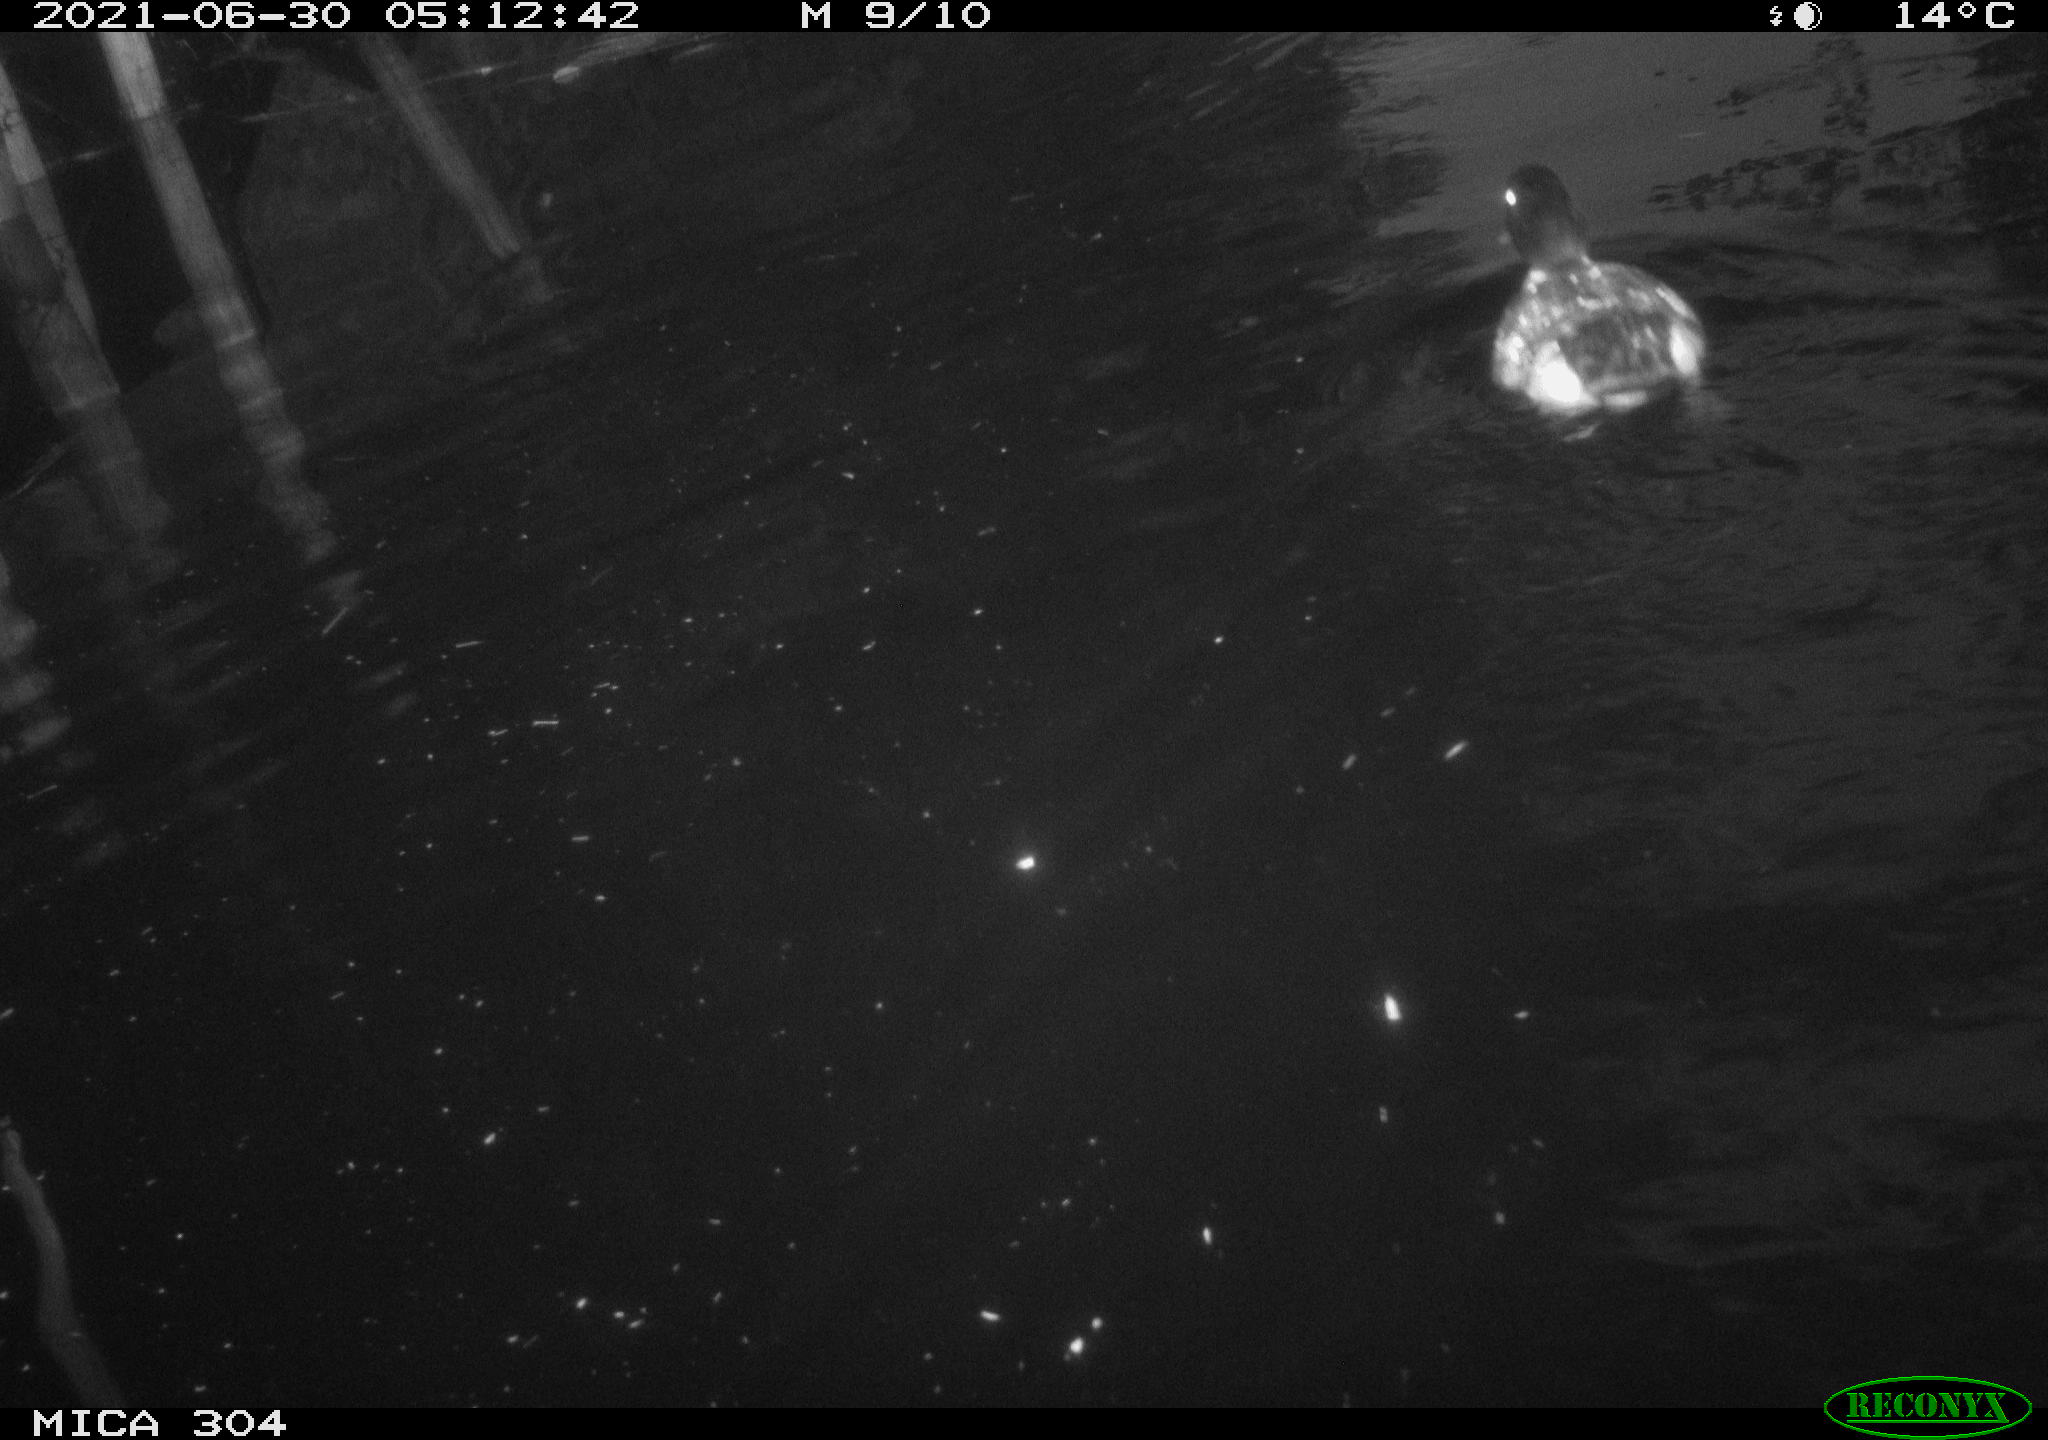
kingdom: Animalia
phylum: Chordata
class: Aves
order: Anseriformes
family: Anatidae
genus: Anas
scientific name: Anas platyrhynchos
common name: Mallard
